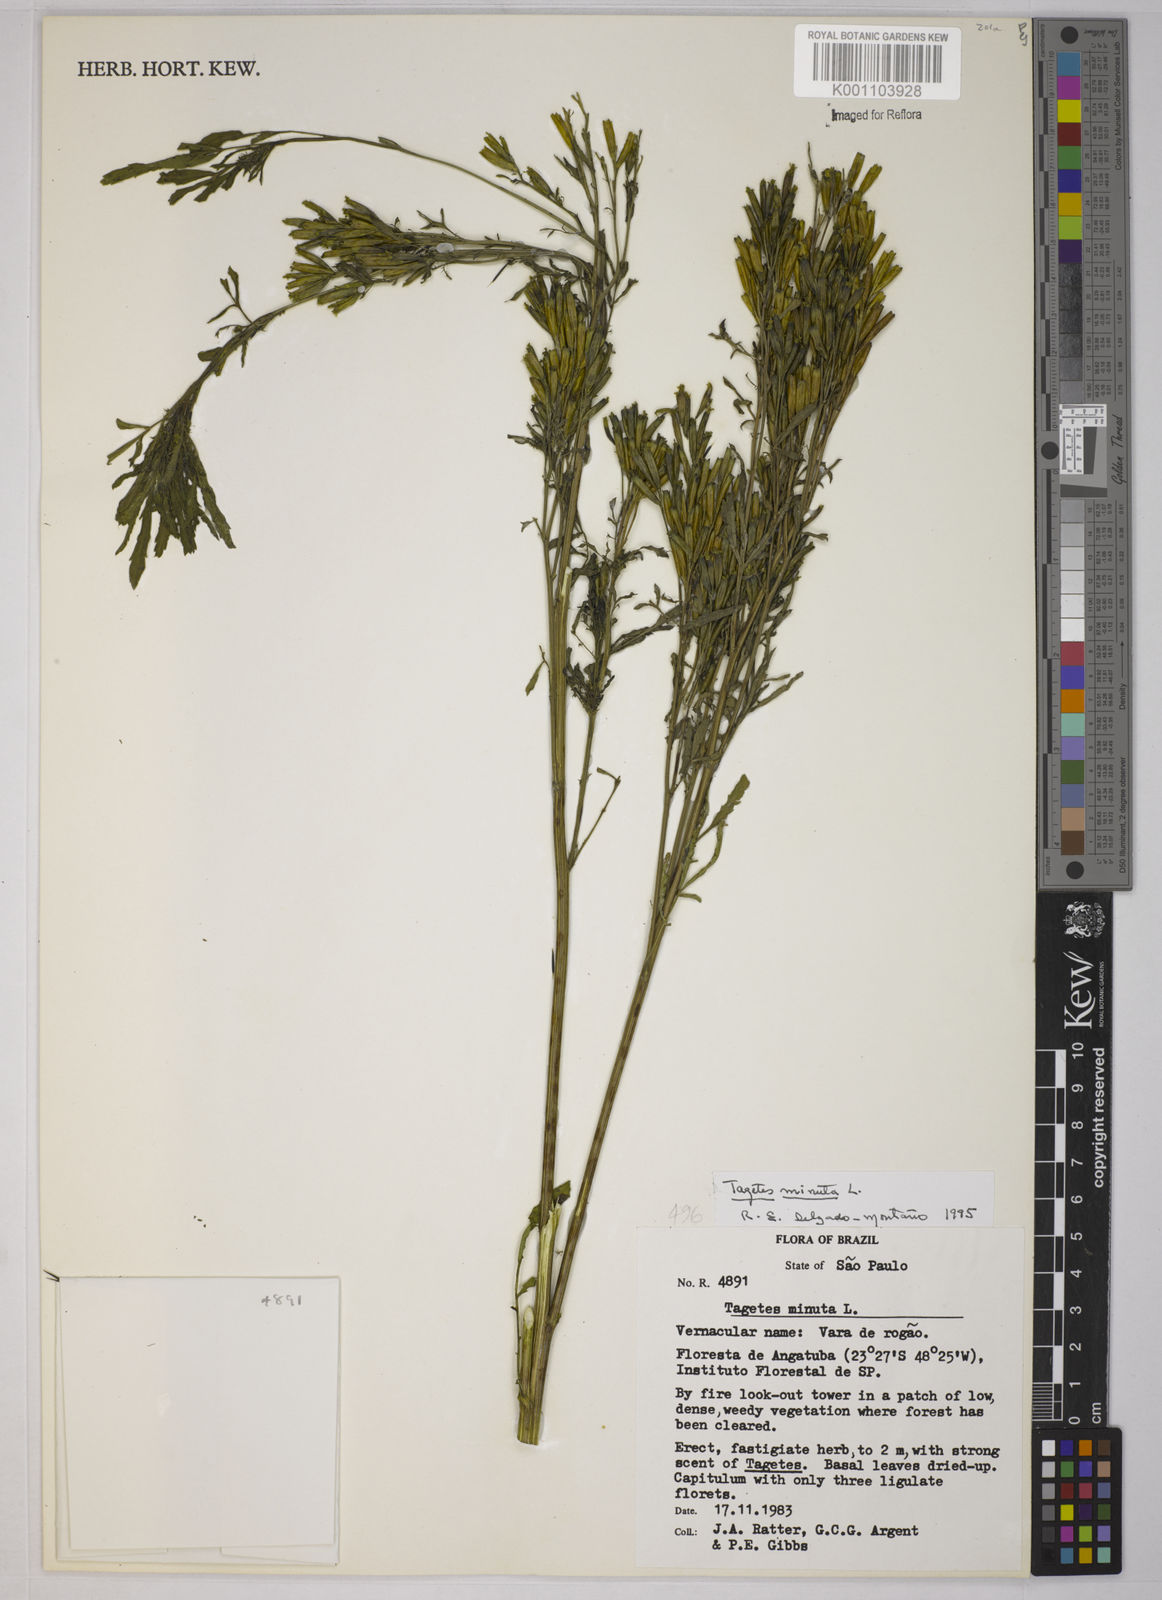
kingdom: Plantae
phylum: Tracheophyta
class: Magnoliopsida
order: Asterales
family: Asteraceae
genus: Tagetes
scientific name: Tagetes minuta
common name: Muster john henry
